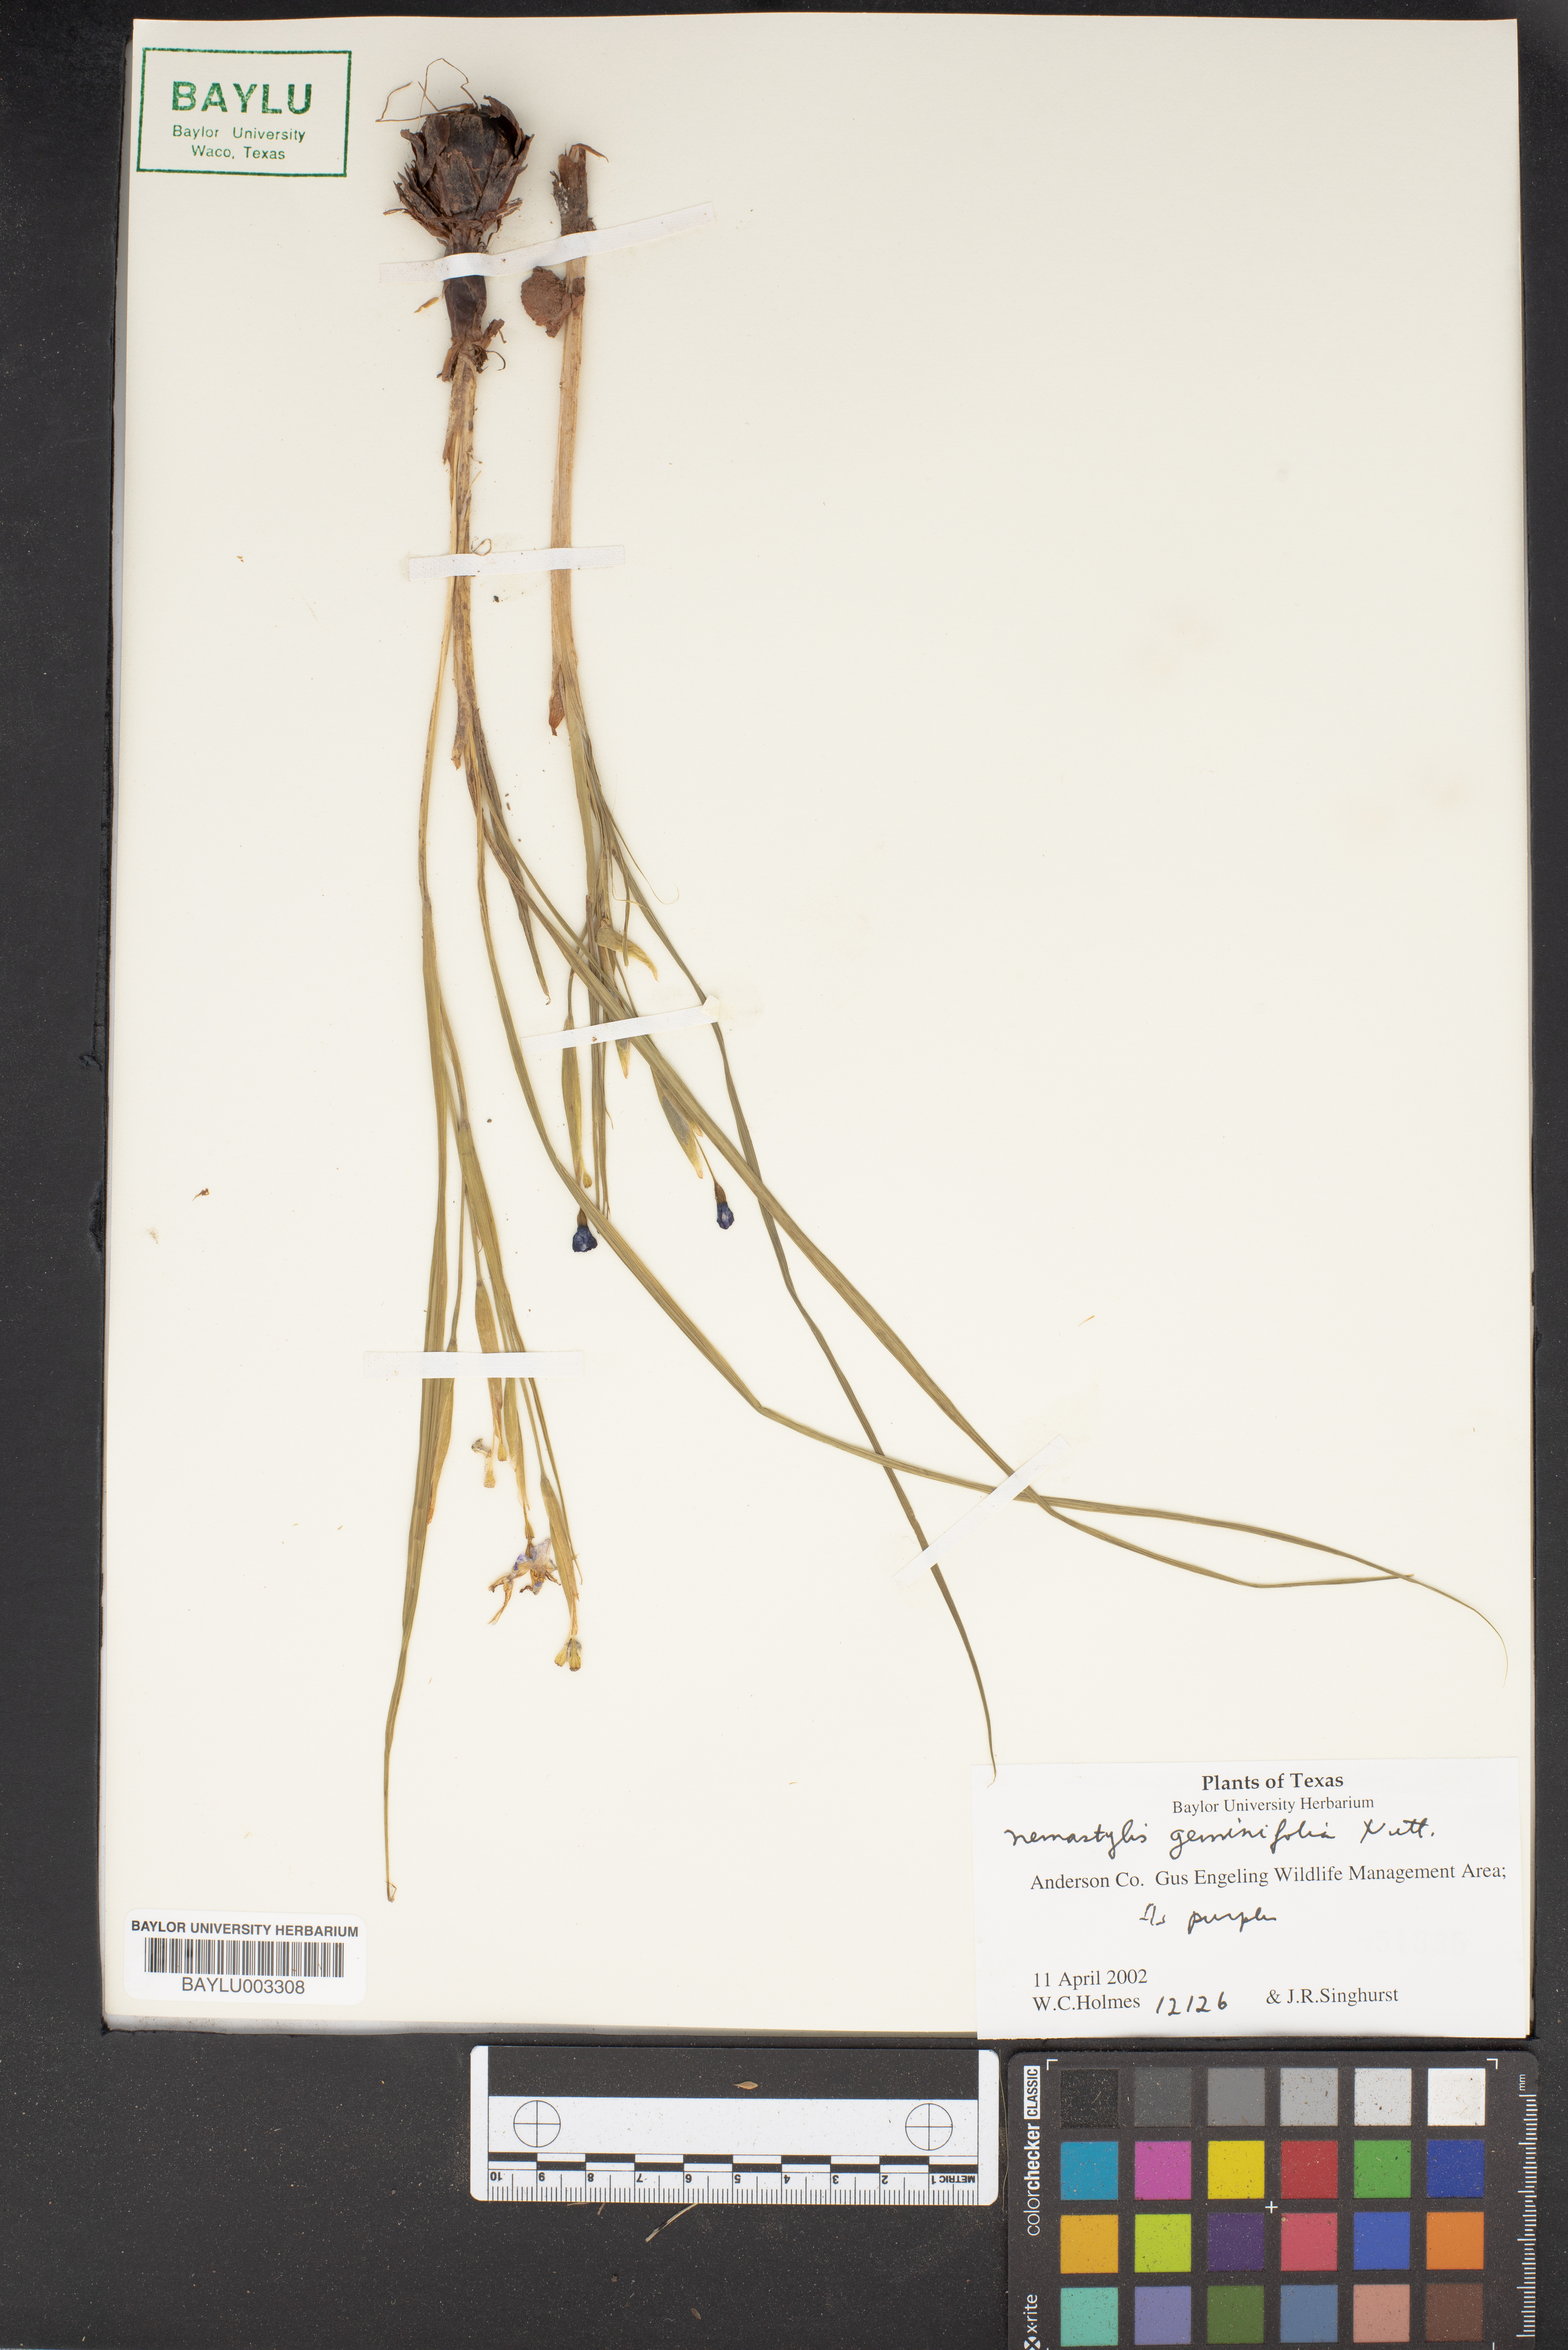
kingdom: Plantae
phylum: Tracheophyta
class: Liliopsida
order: Asparagales
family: Iridaceae
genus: Nemastylis
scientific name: Nemastylis geminiflora
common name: Prairie celestial
